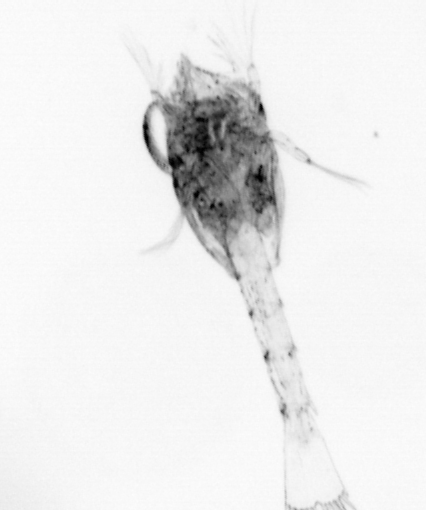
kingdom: Animalia
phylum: Arthropoda
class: Malacostraca
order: Decapoda
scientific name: Decapoda
